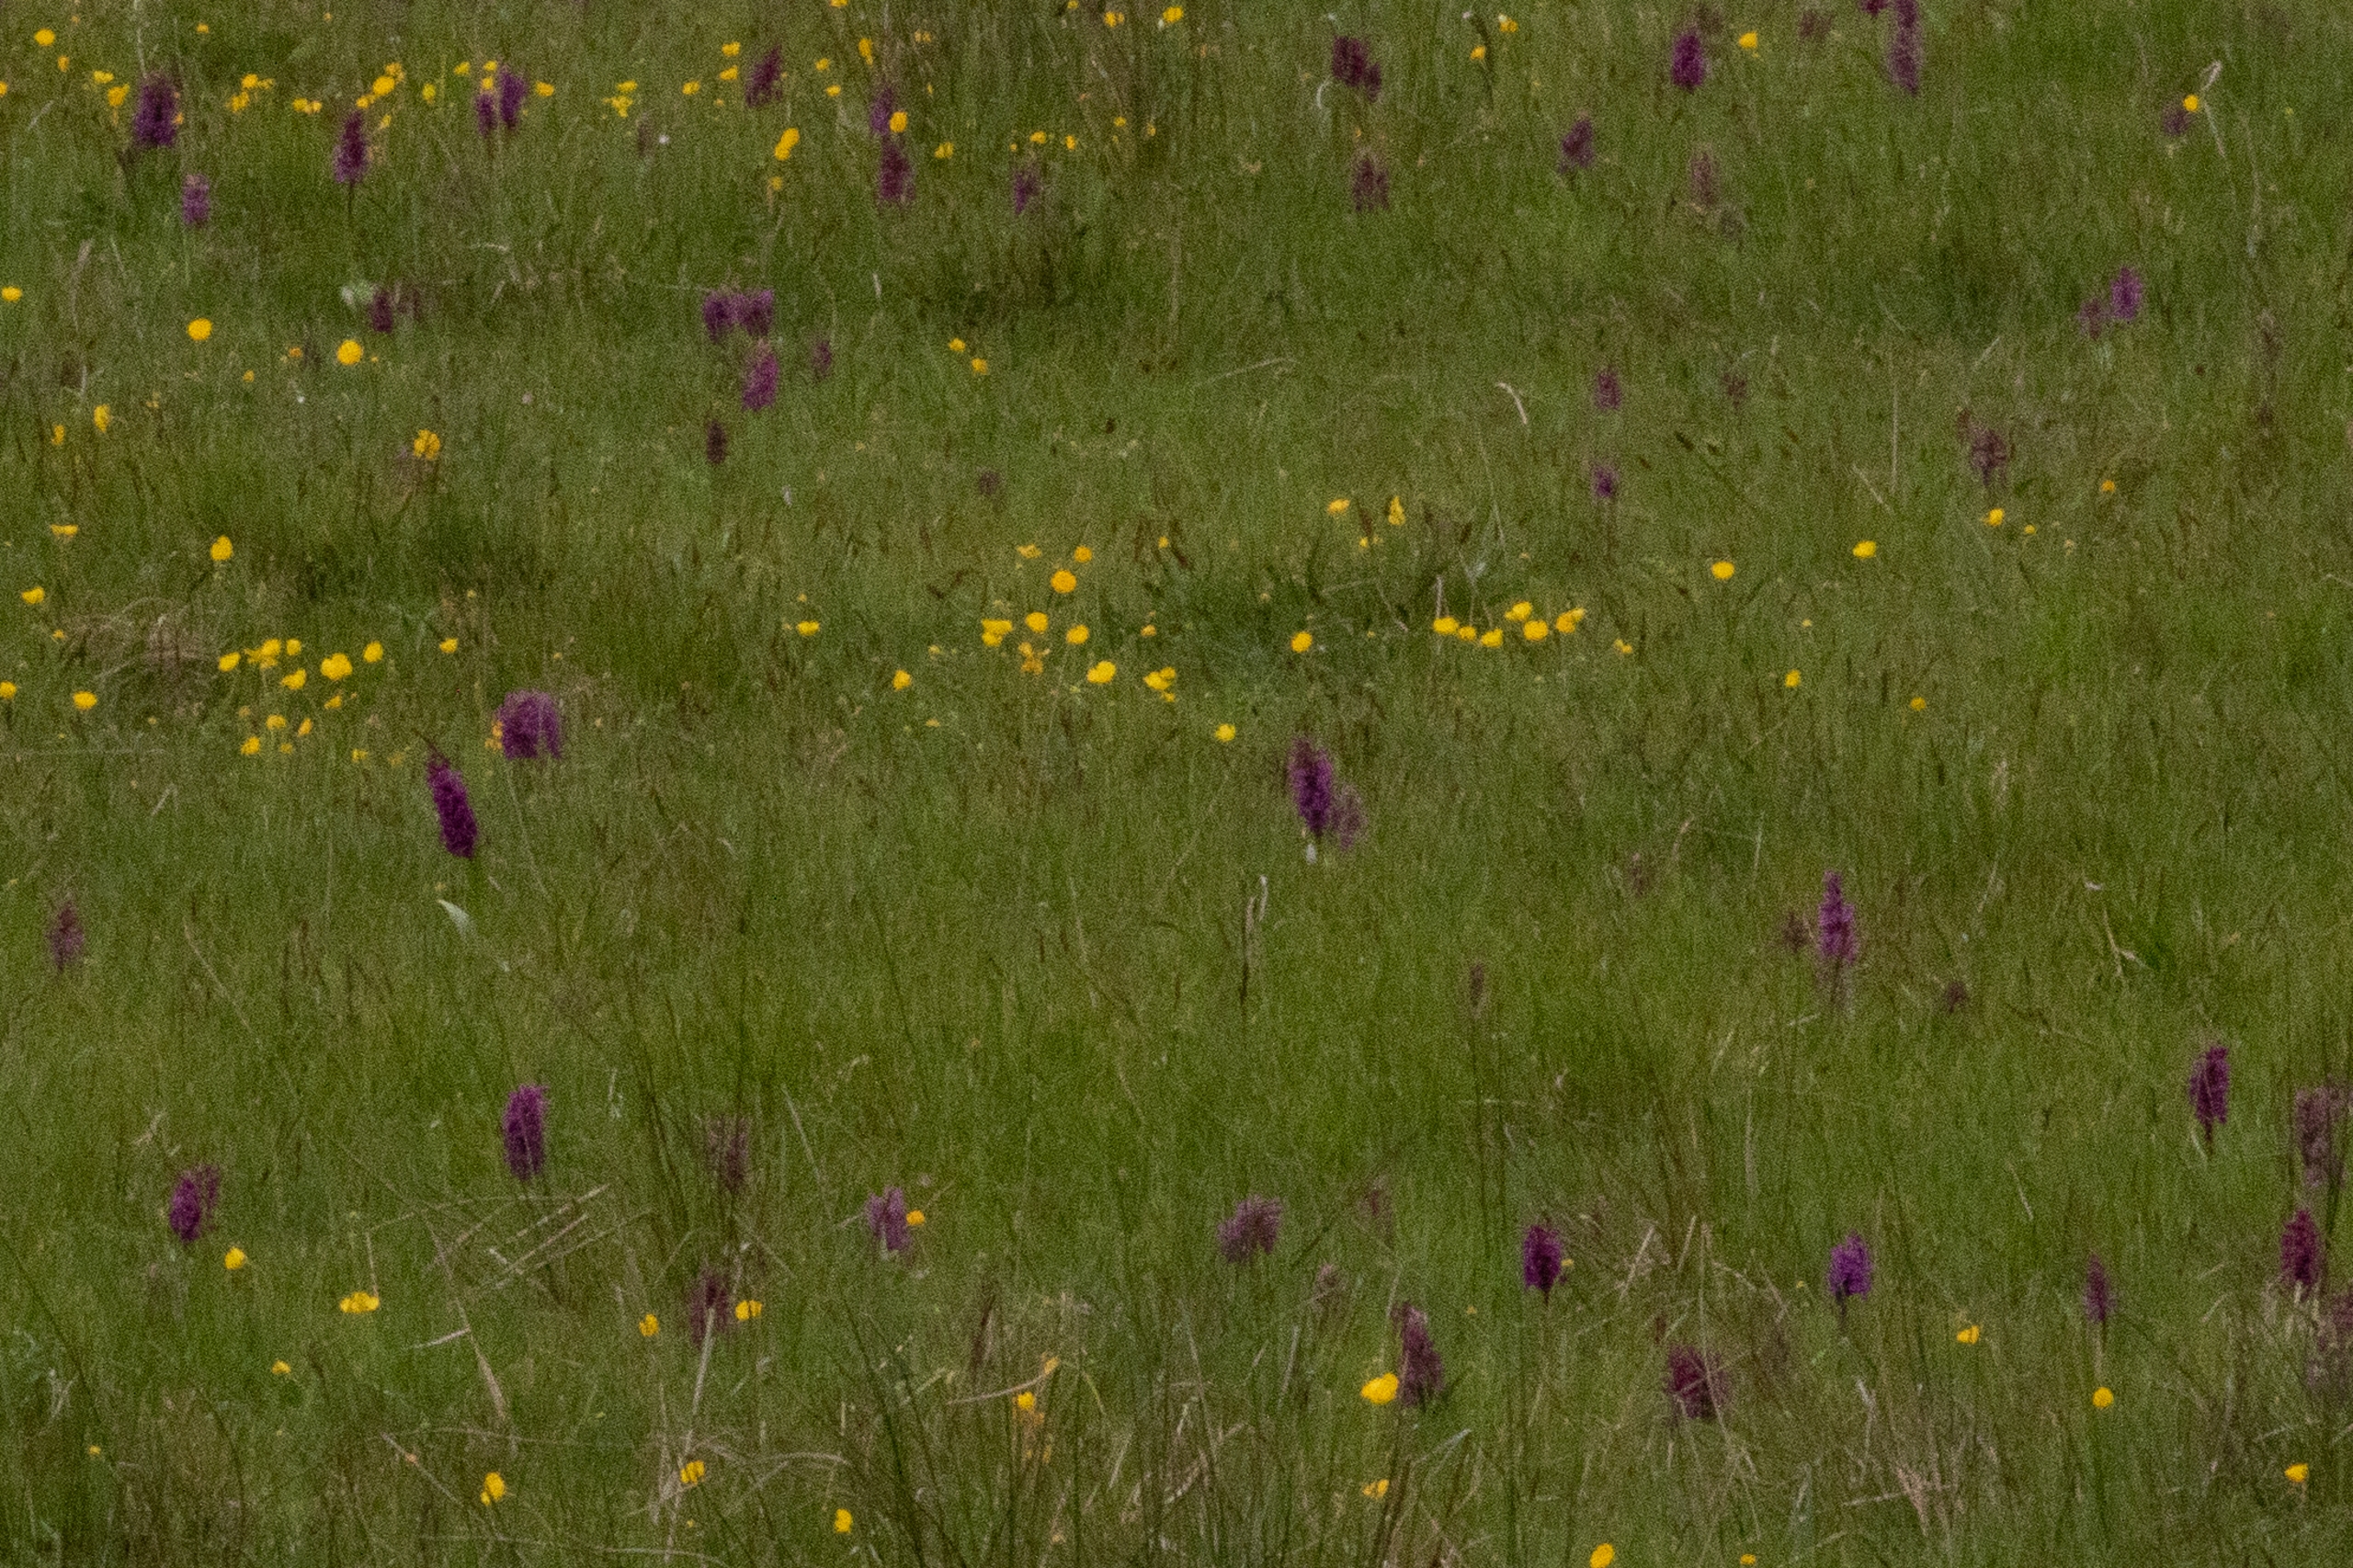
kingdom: Plantae
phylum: Tracheophyta
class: Liliopsida
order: Asparagales
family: Orchidaceae
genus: Dactylorhiza
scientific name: Dactylorhiza majalis
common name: Maj-gøgeurt
